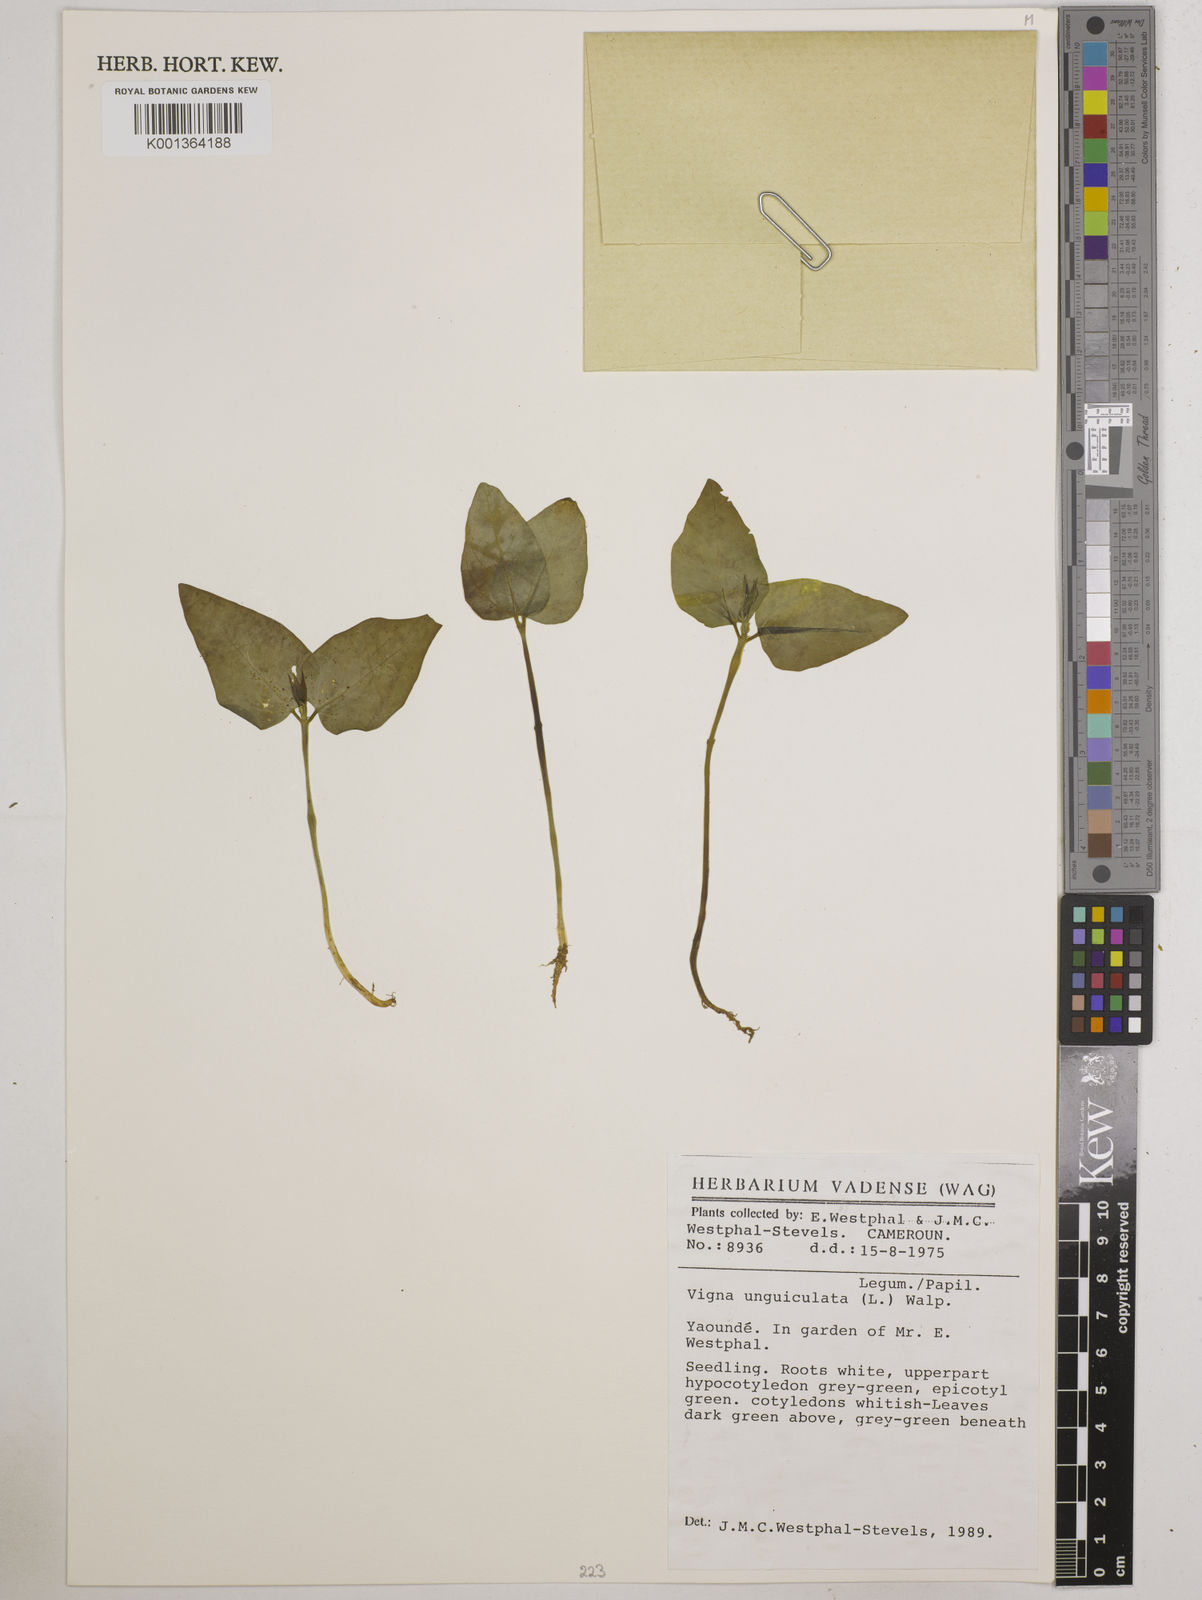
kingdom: Plantae
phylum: Tracheophyta
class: Magnoliopsida
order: Fabales
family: Fabaceae
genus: Vigna
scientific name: Vigna unguiculata
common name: Cowpea
